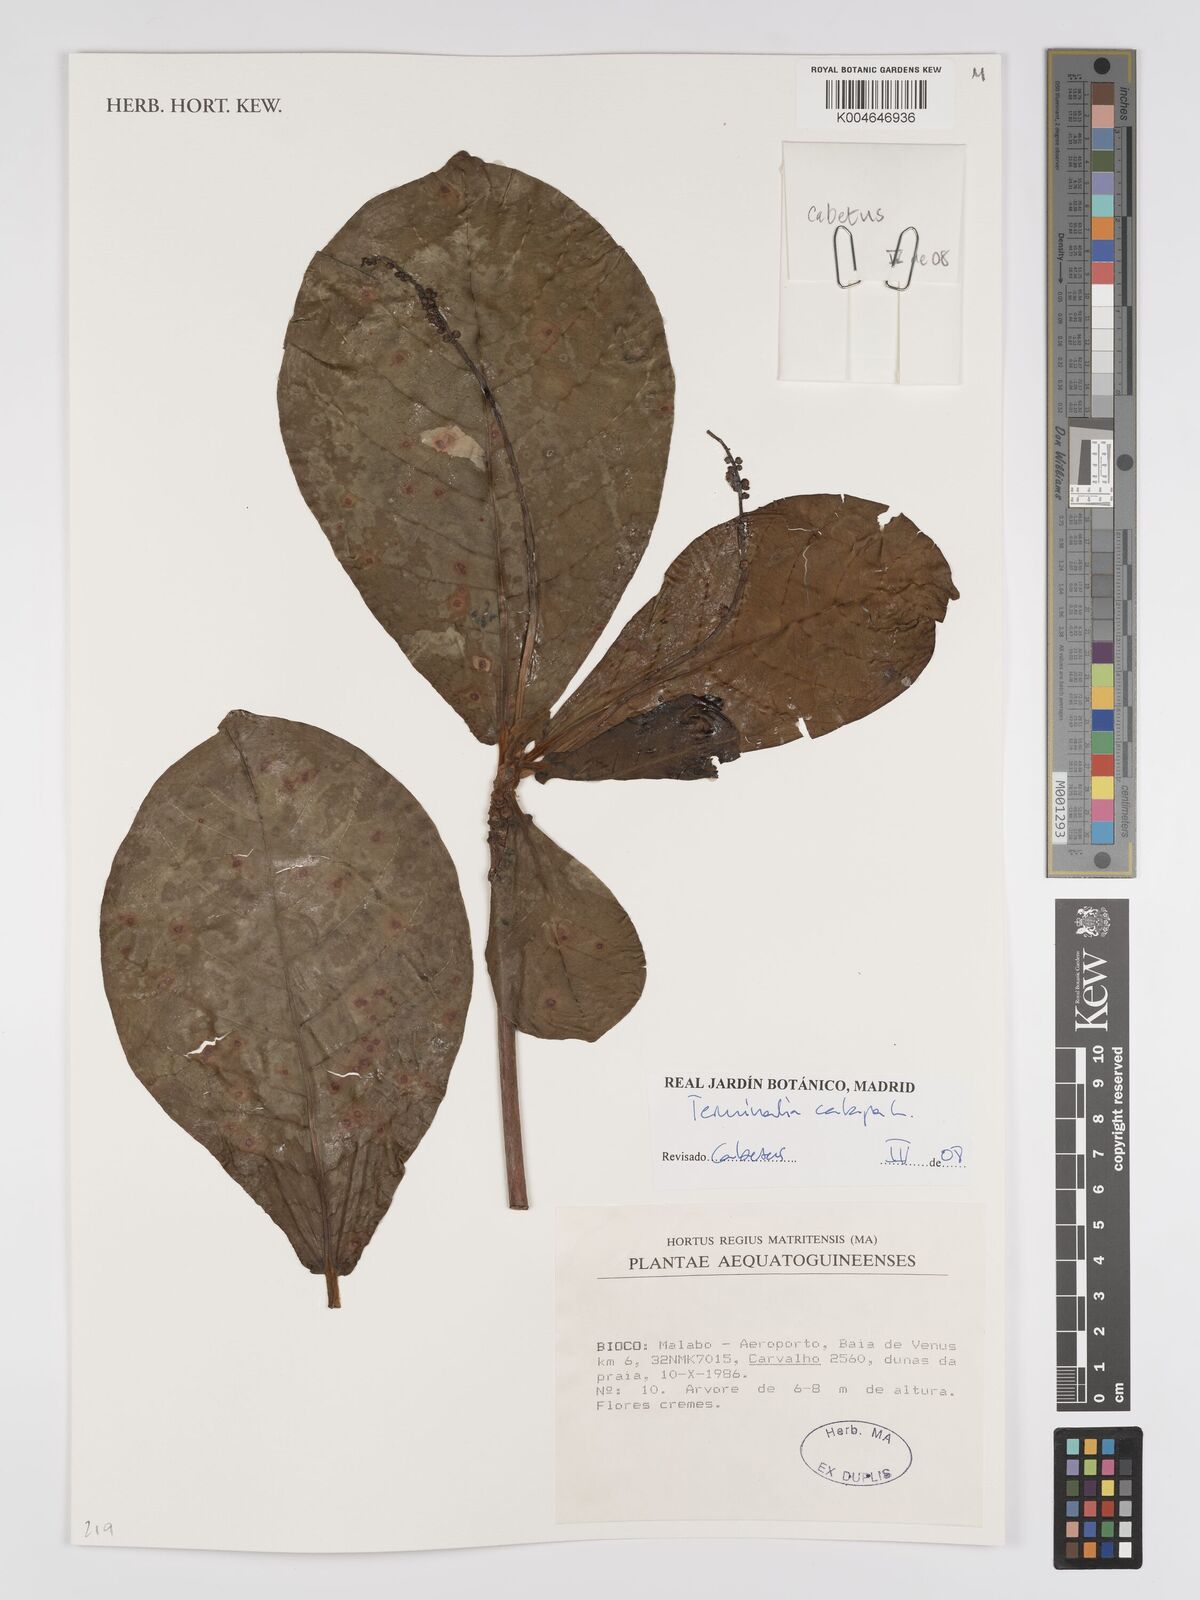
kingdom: Plantae
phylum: Tracheophyta
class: Magnoliopsida
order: Myrtales
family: Combretaceae
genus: Terminalia
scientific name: Terminalia catappa
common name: Tropical almond
